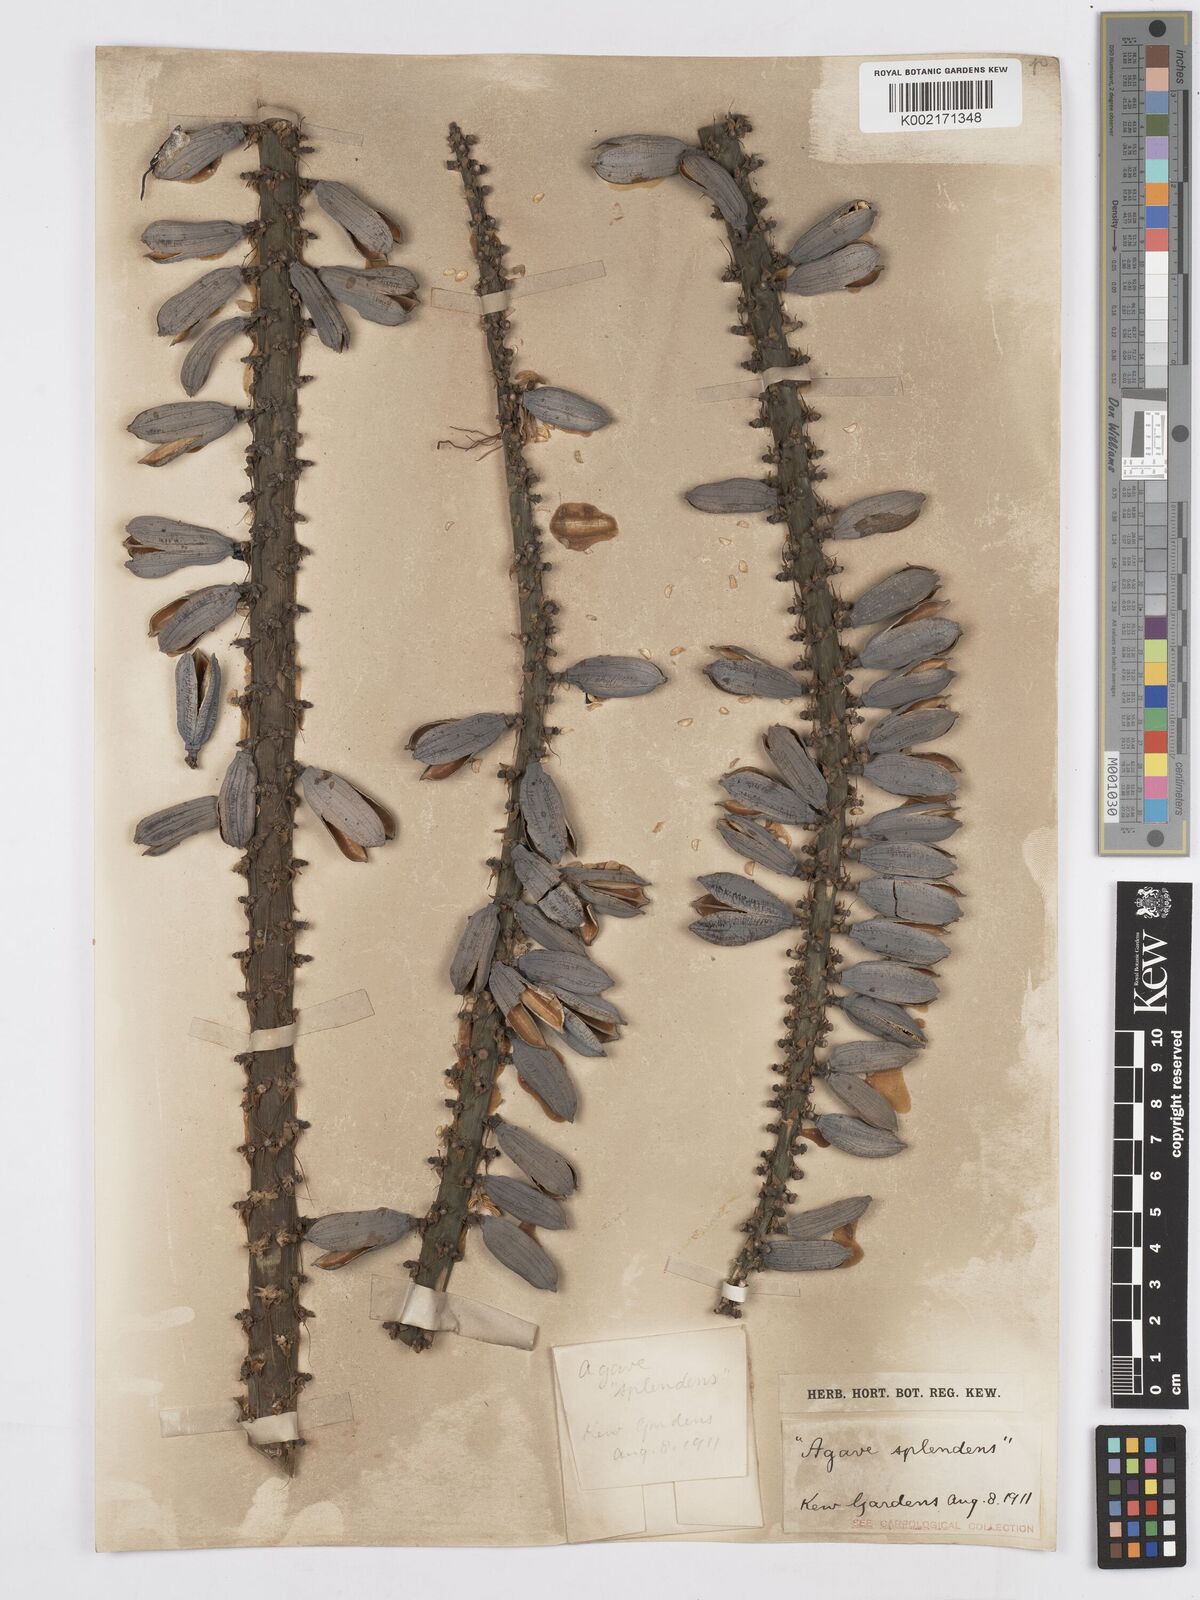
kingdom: Plantae
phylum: Tracheophyta
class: Liliopsida
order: Asparagales
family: Asparagaceae
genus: Agave
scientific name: Agave xylonacantha
